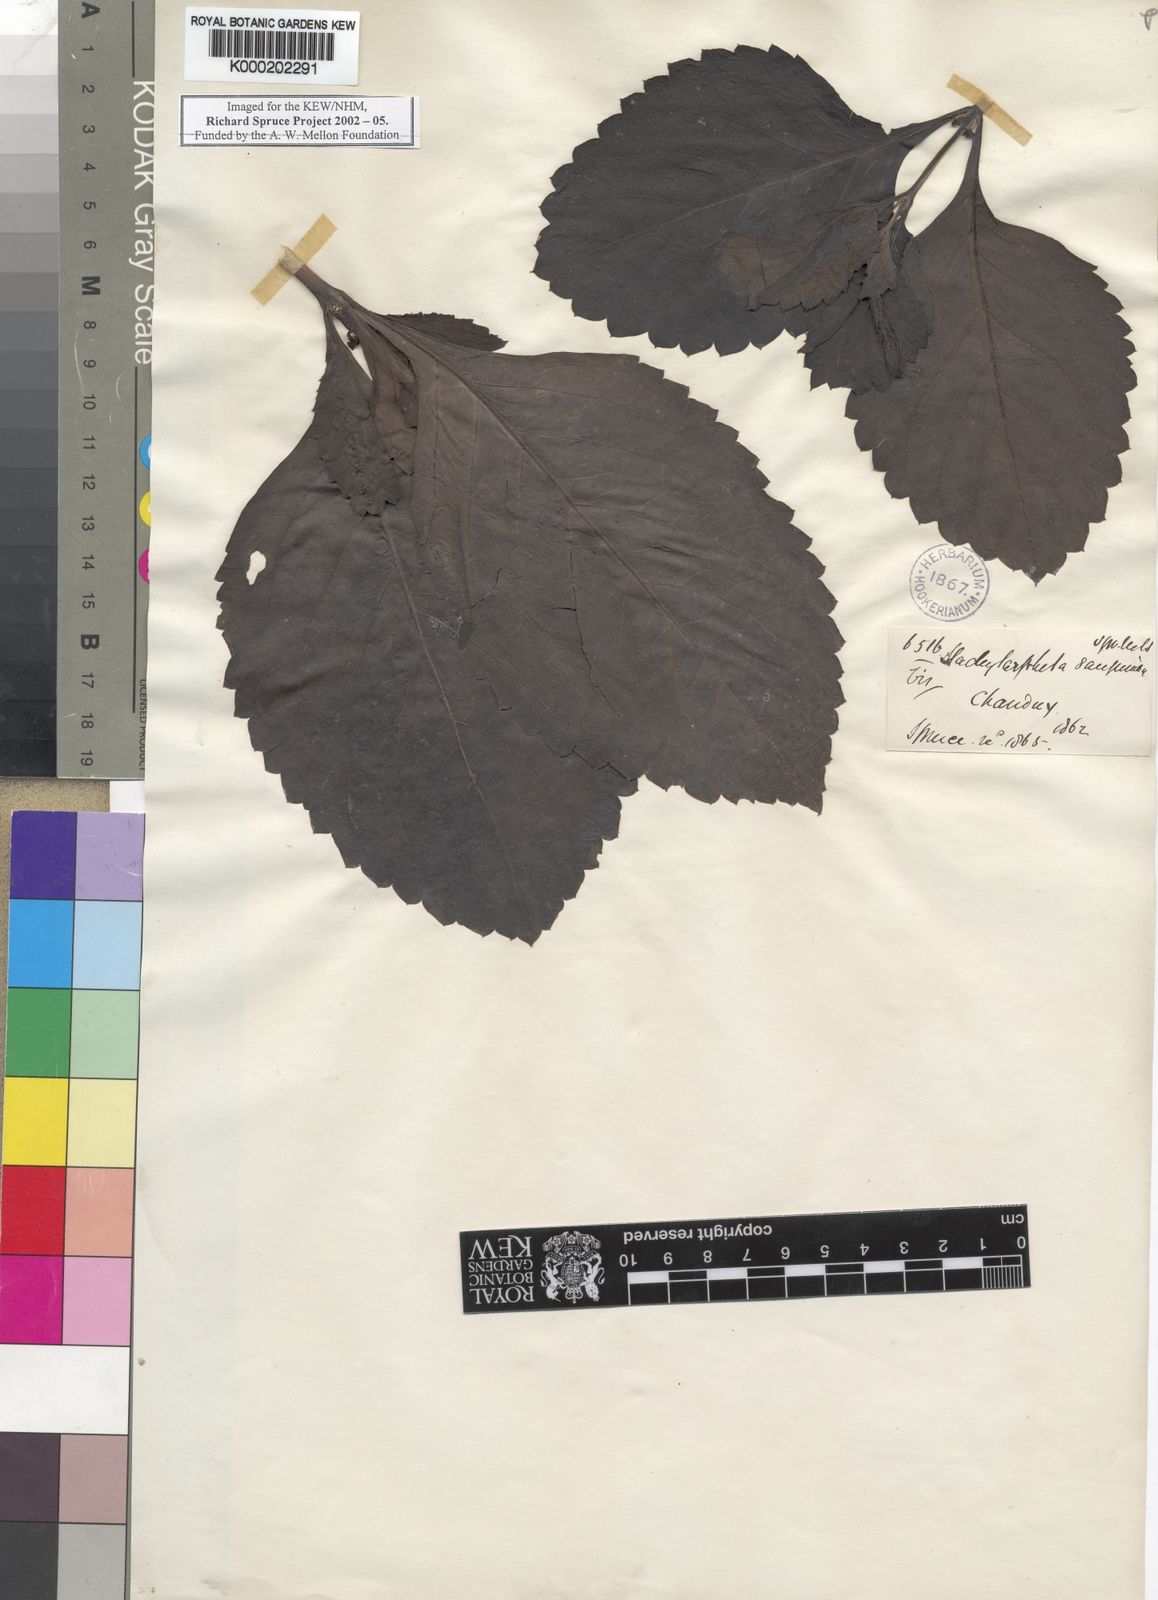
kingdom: Plantae
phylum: Tracheophyta
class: Magnoliopsida
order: Lamiales
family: Verbenaceae
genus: Stachytarpheta
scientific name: Stachytarpheta
